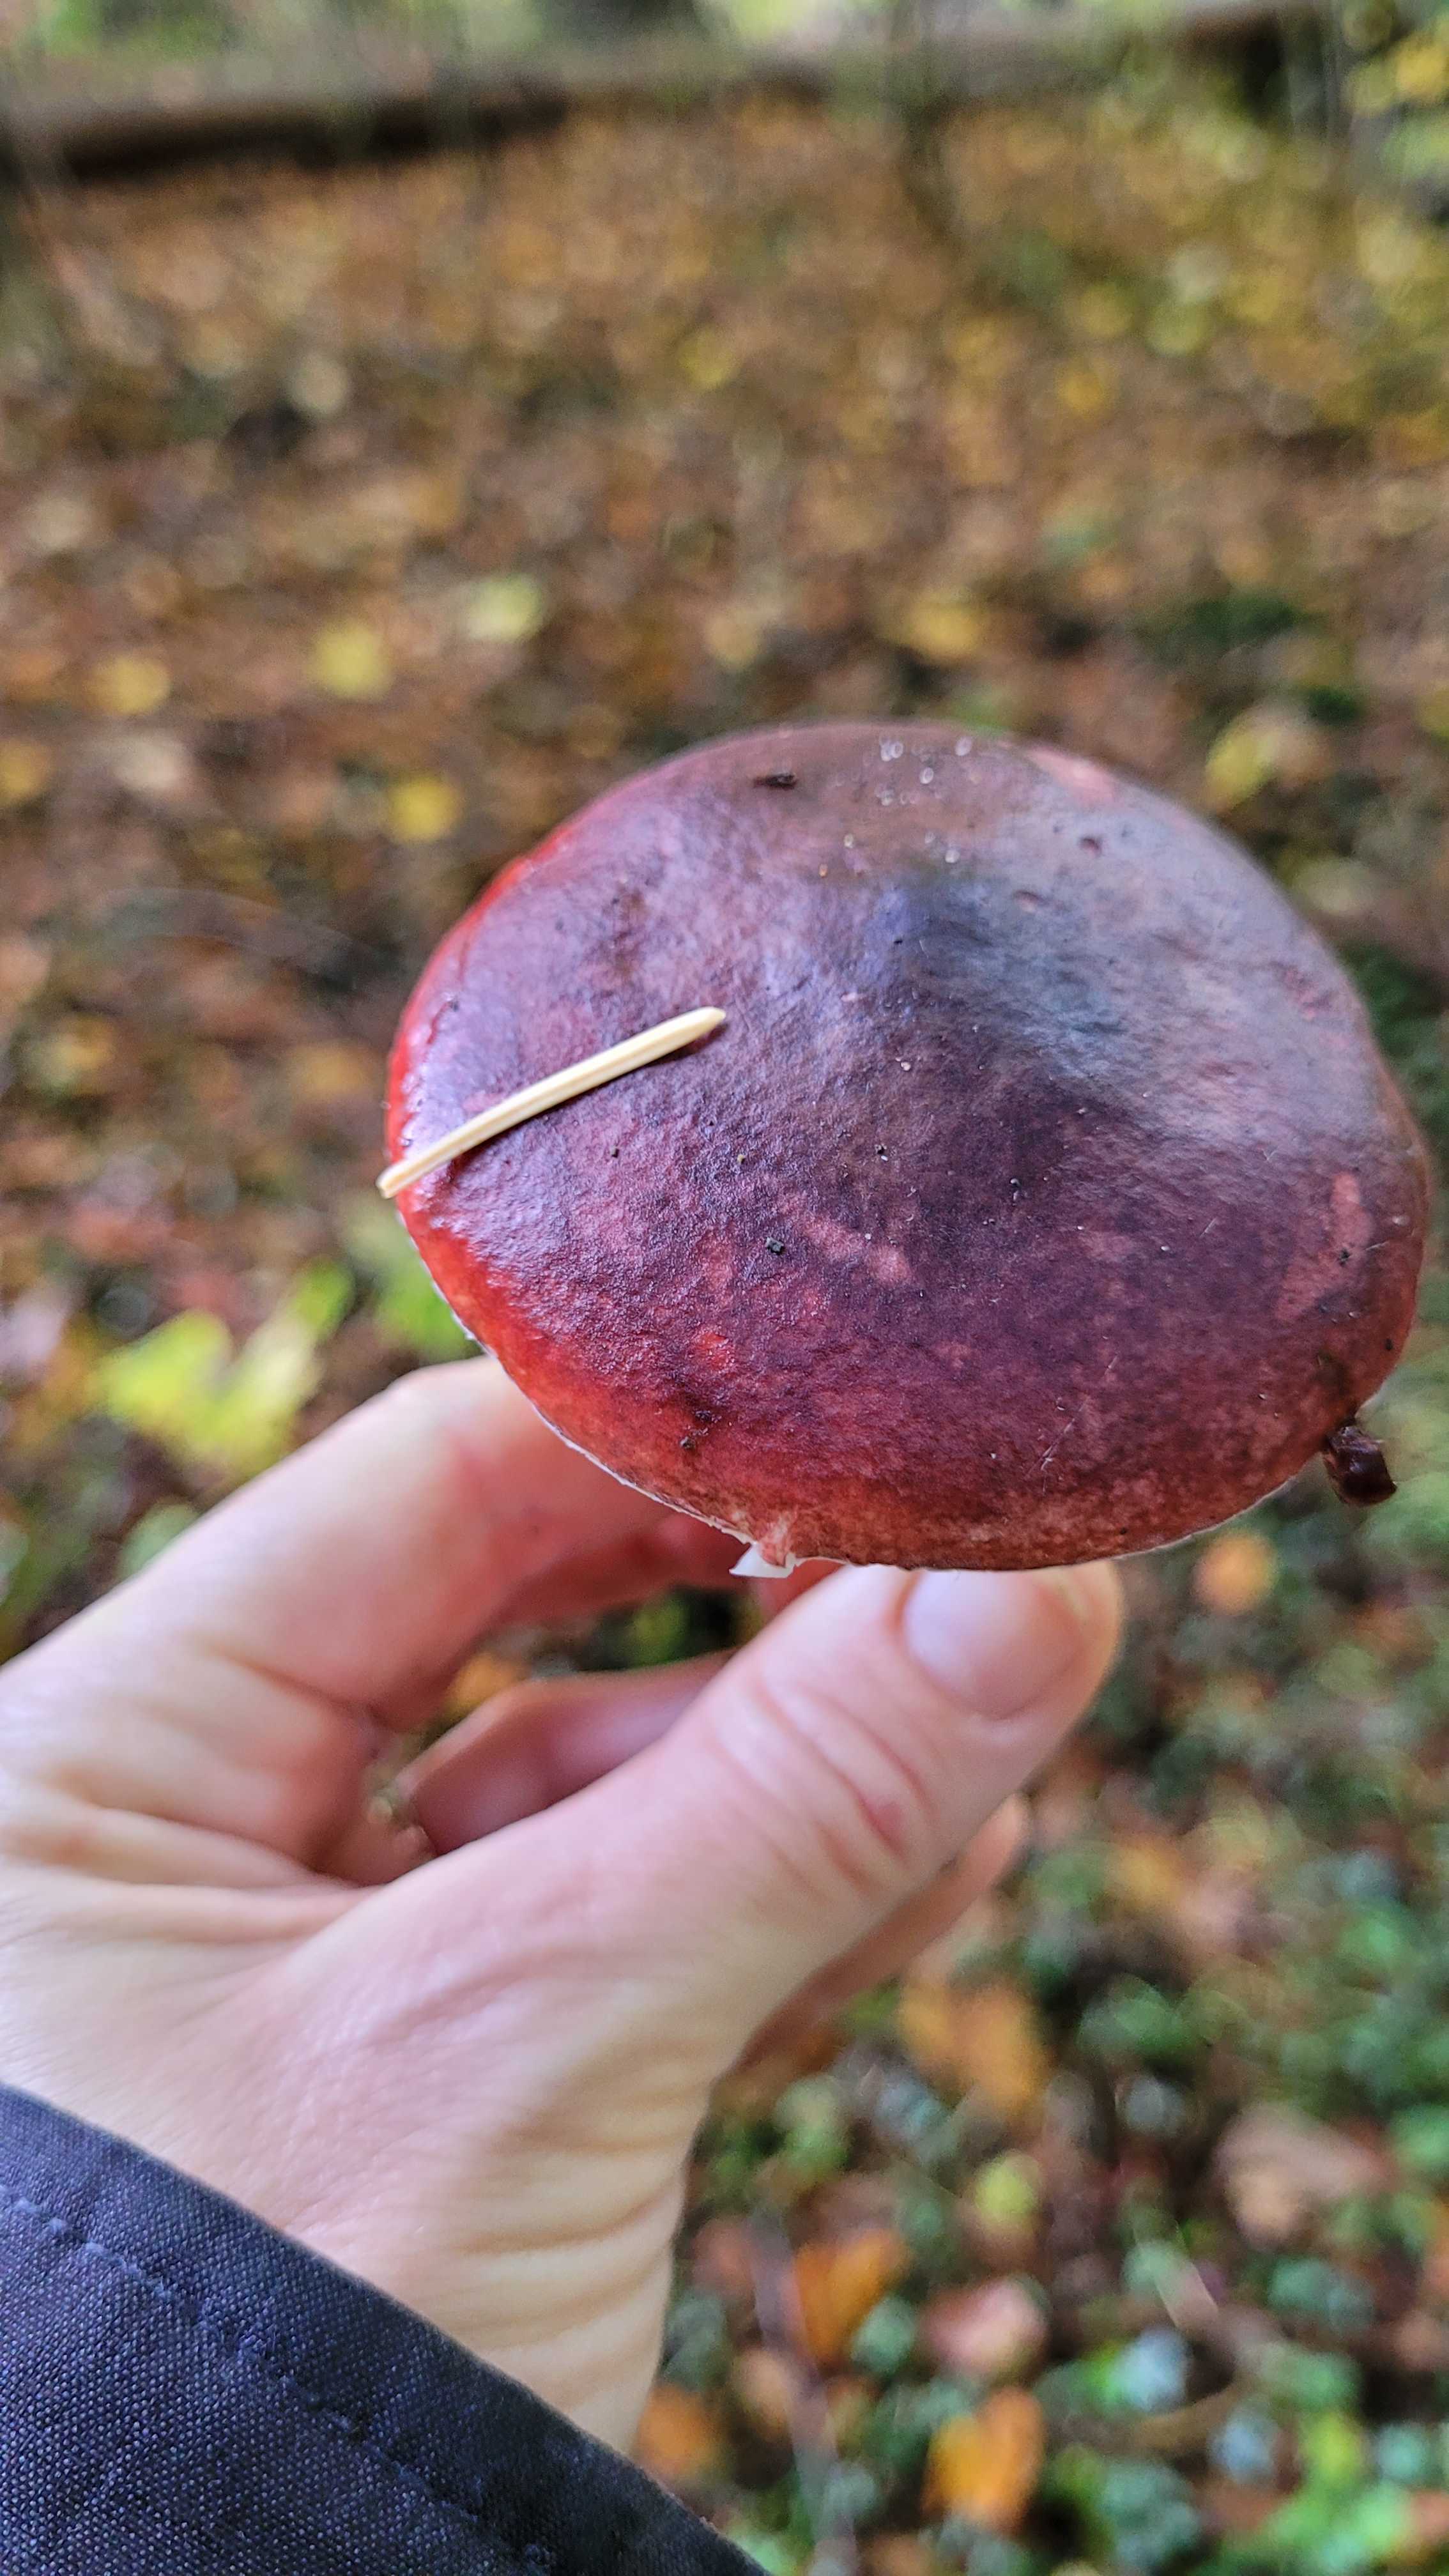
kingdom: Fungi
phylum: Basidiomycota
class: Agaricomycetes
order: Russulales
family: Russulaceae
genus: Russula
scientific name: Russula
